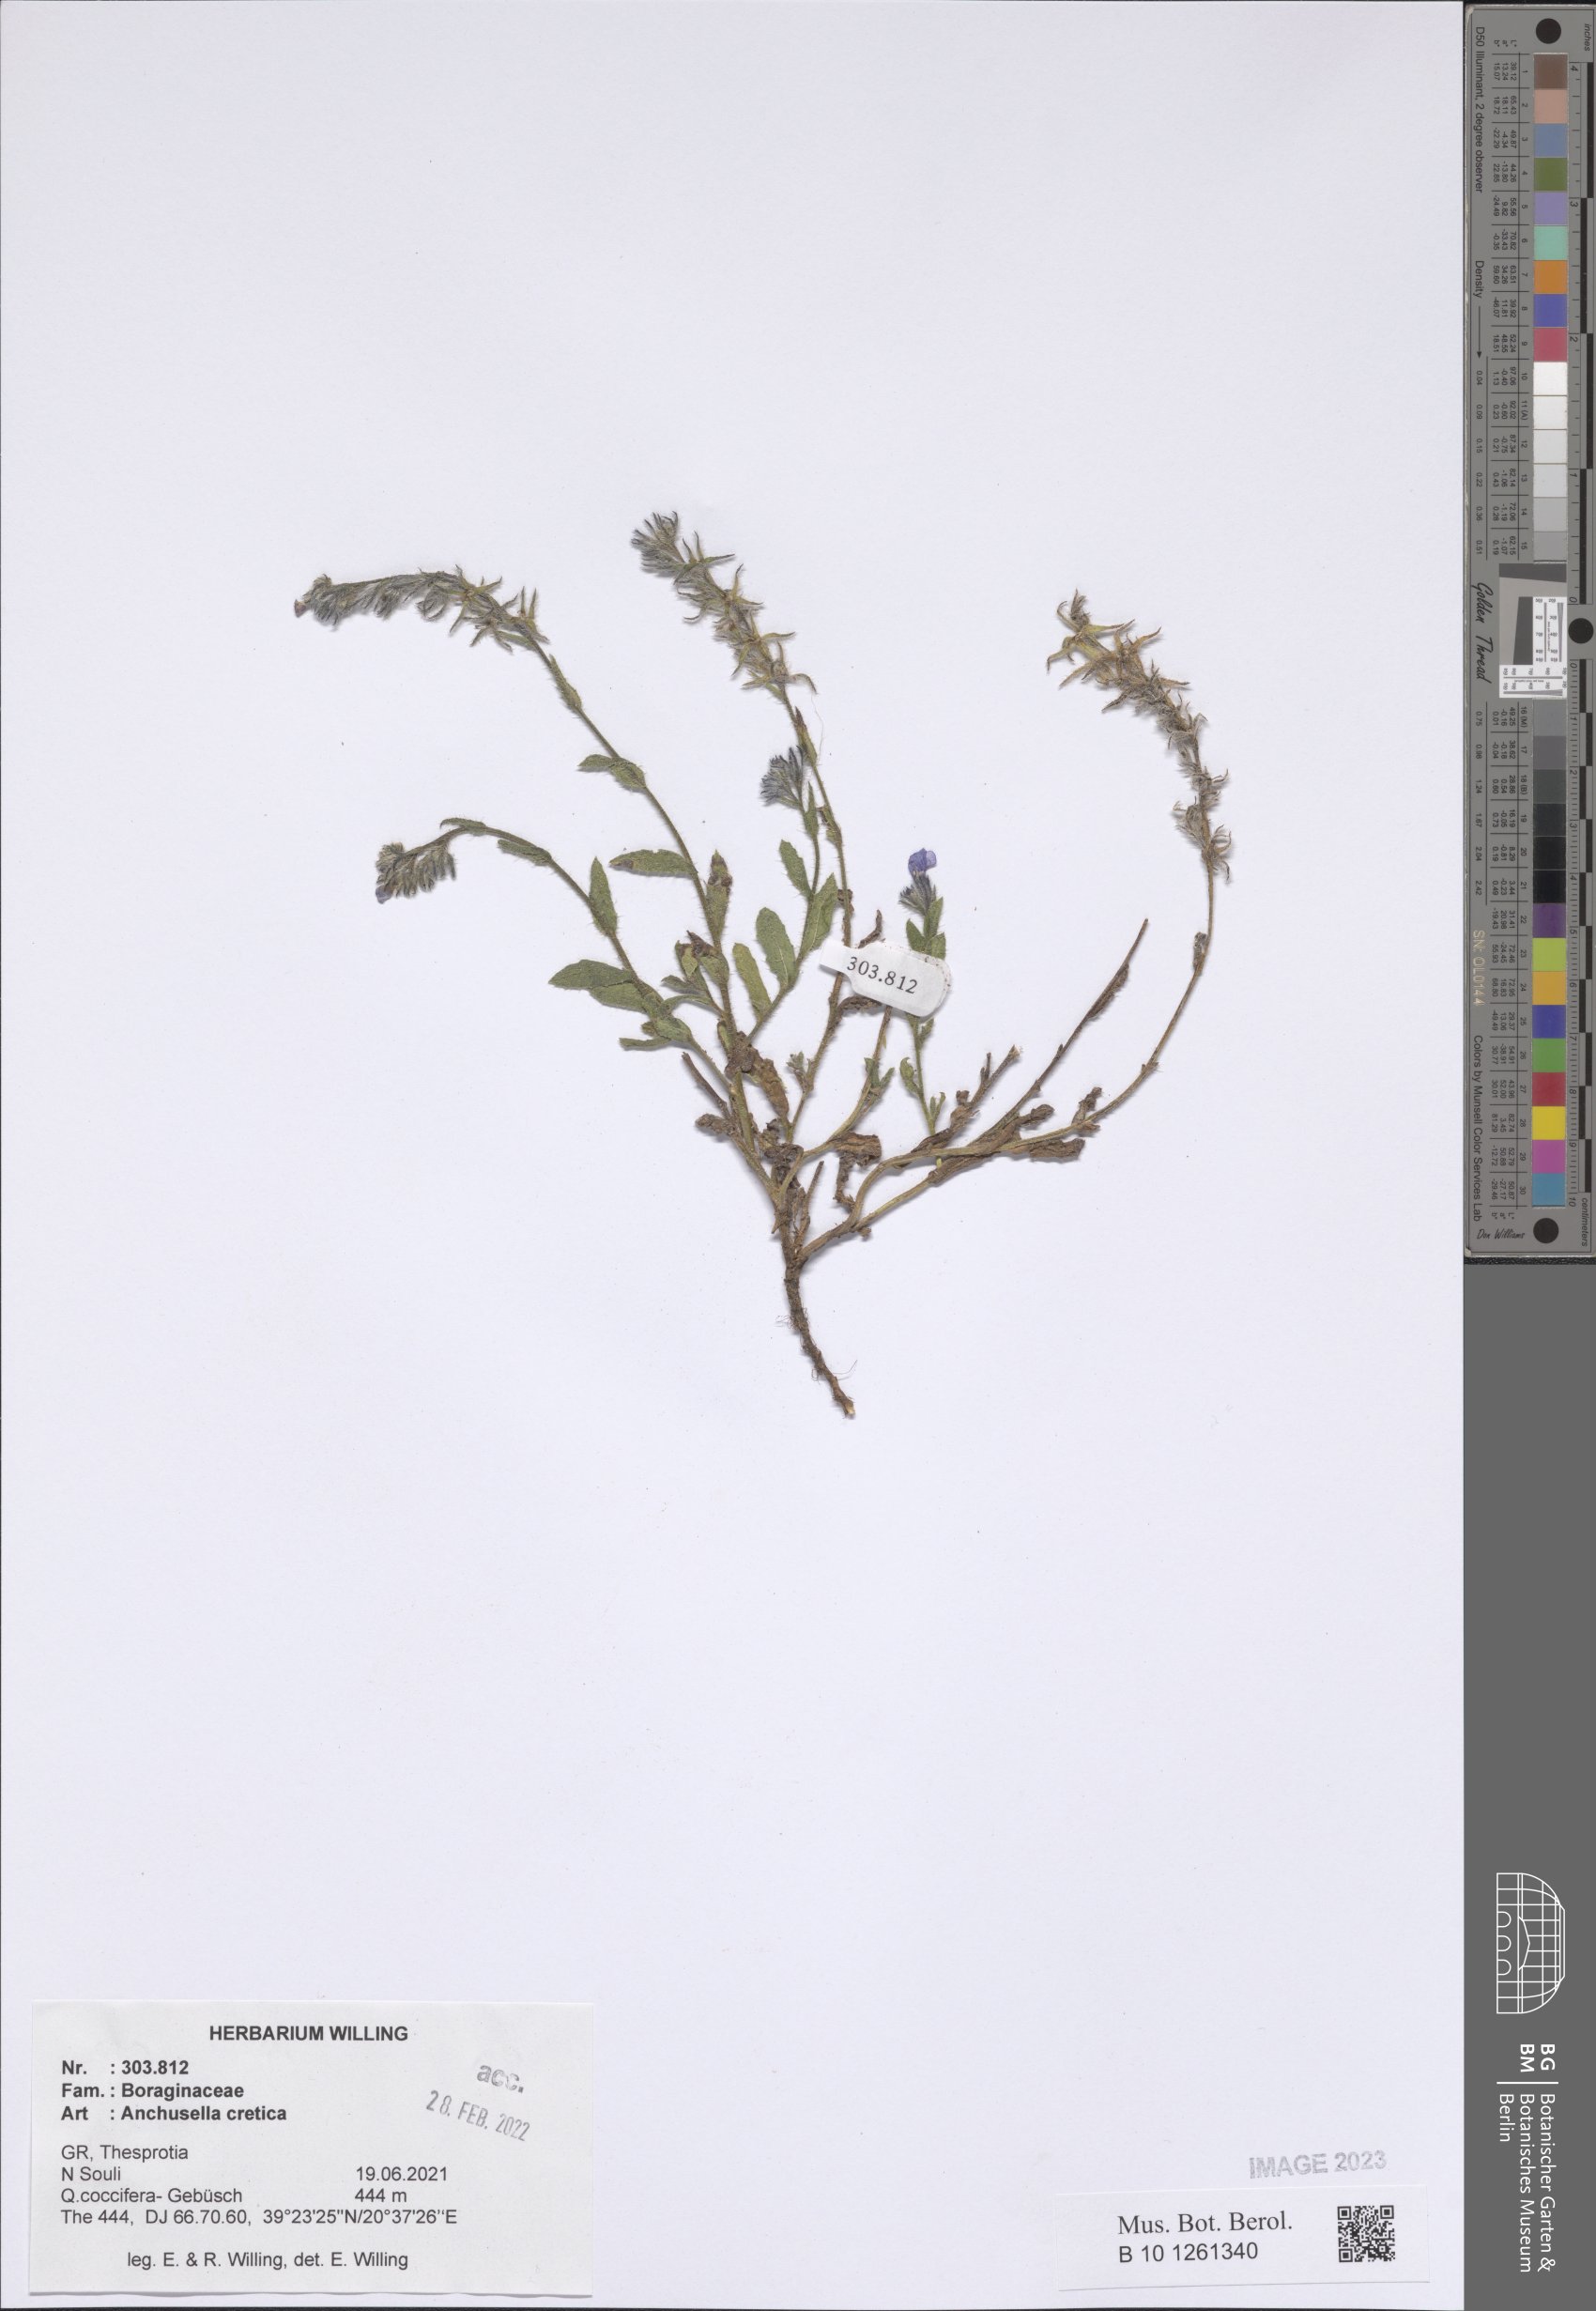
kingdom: Plantae
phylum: Tracheophyta
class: Magnoliopsida
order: Boraginales
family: Boraginaceae
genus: Anchusella
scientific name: Anchusella cretica
